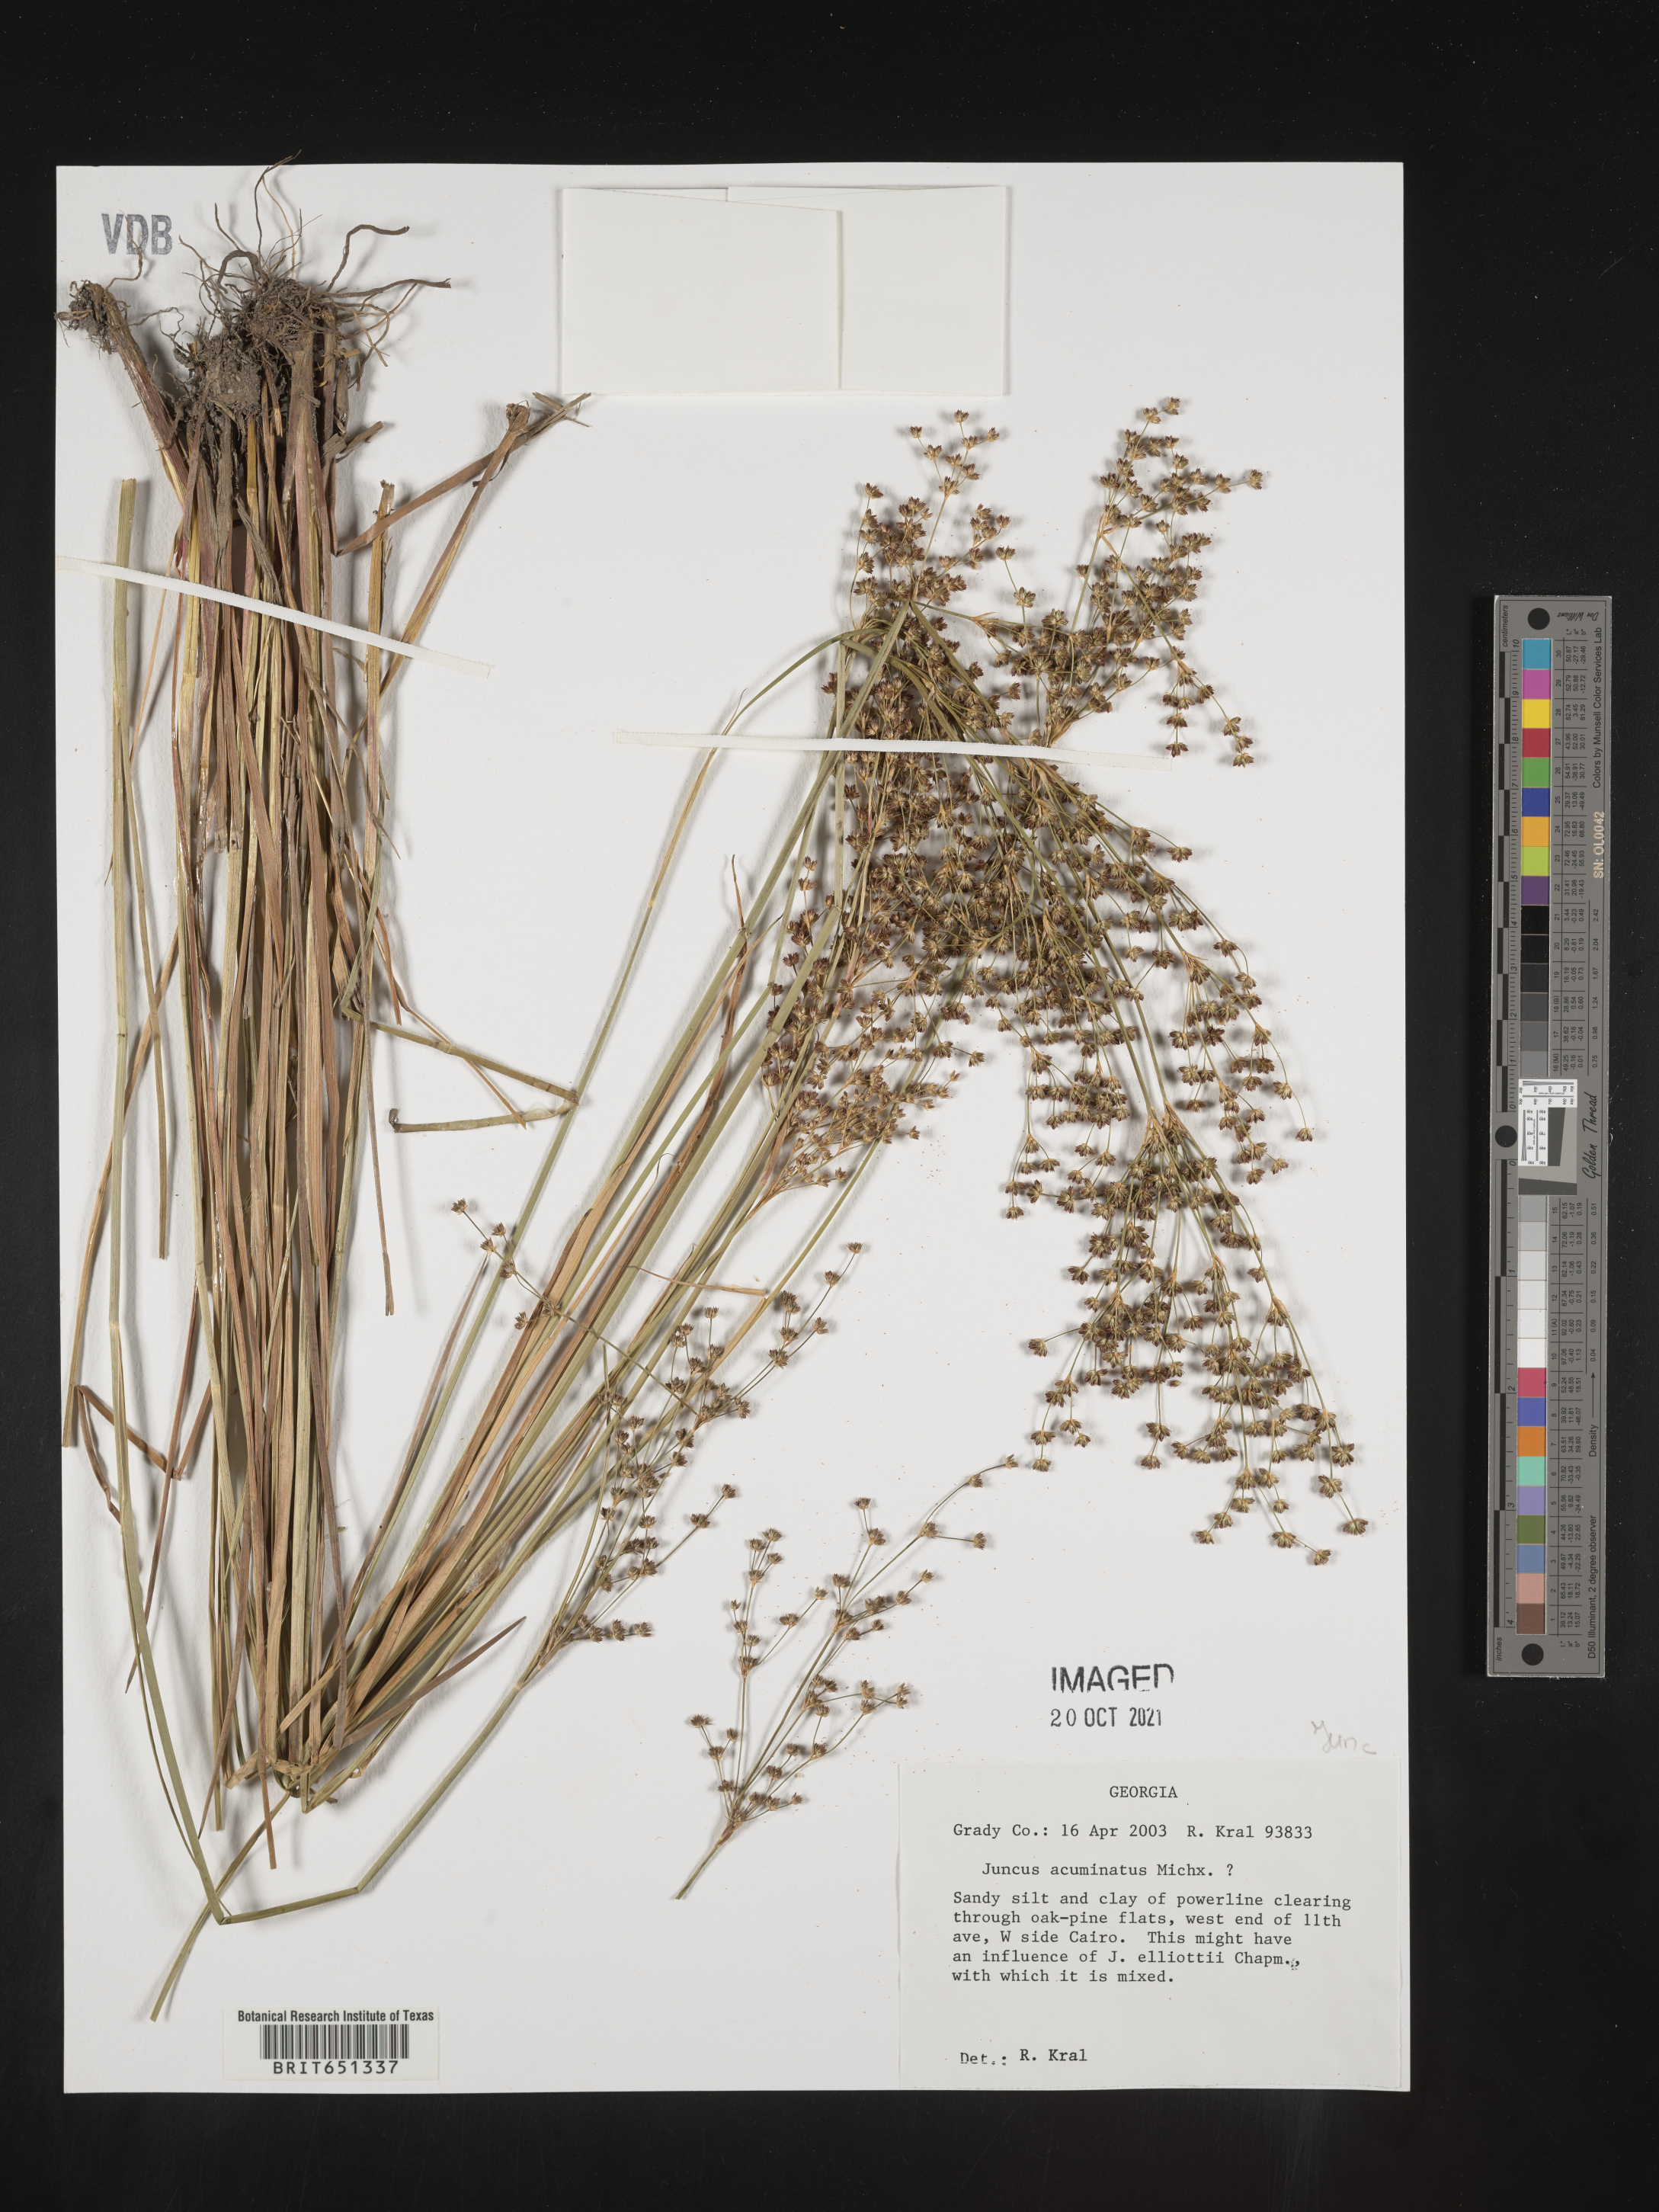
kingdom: Plantae
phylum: Tracheophyta
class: Liliopsida
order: Poales
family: Juncaceae
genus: Juncus
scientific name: Juncus acuminatus
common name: Knotty-leaved rush
